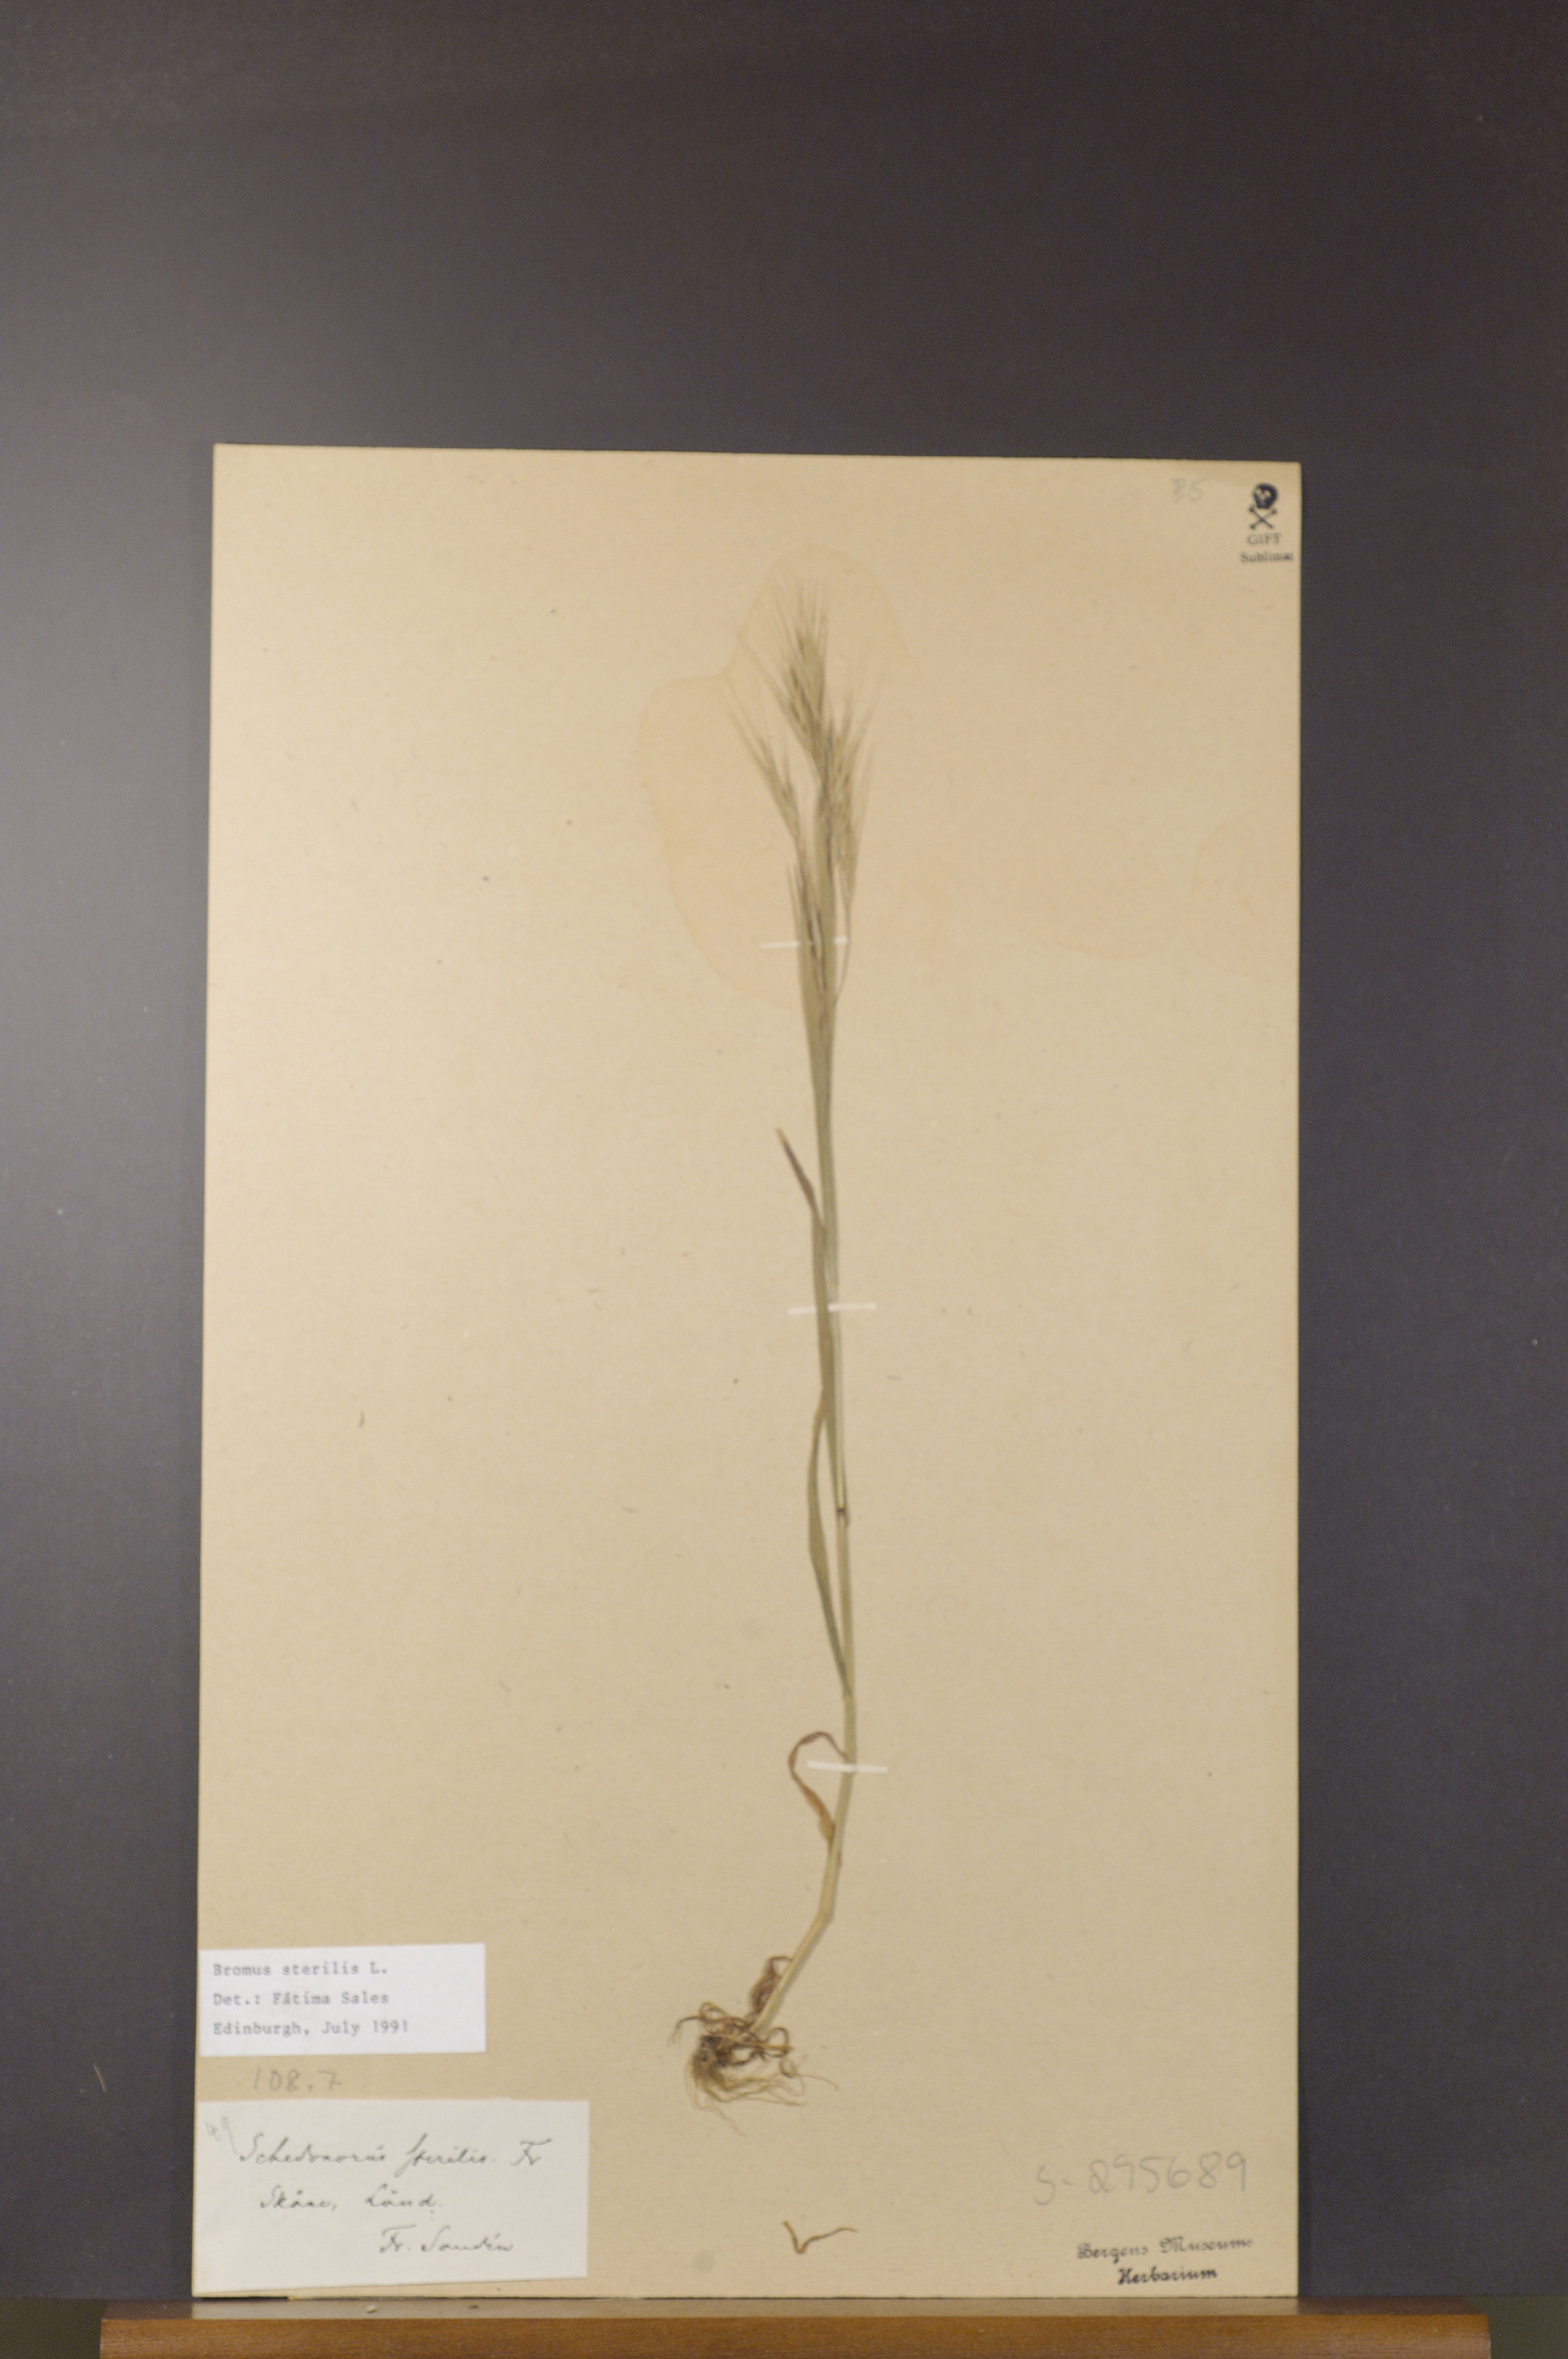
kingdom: Plantae
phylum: Tracheophyta
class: Liliopsida
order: Poales
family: Poaceae
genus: Bromus
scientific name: Bromus sterilis
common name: Poverty brome
